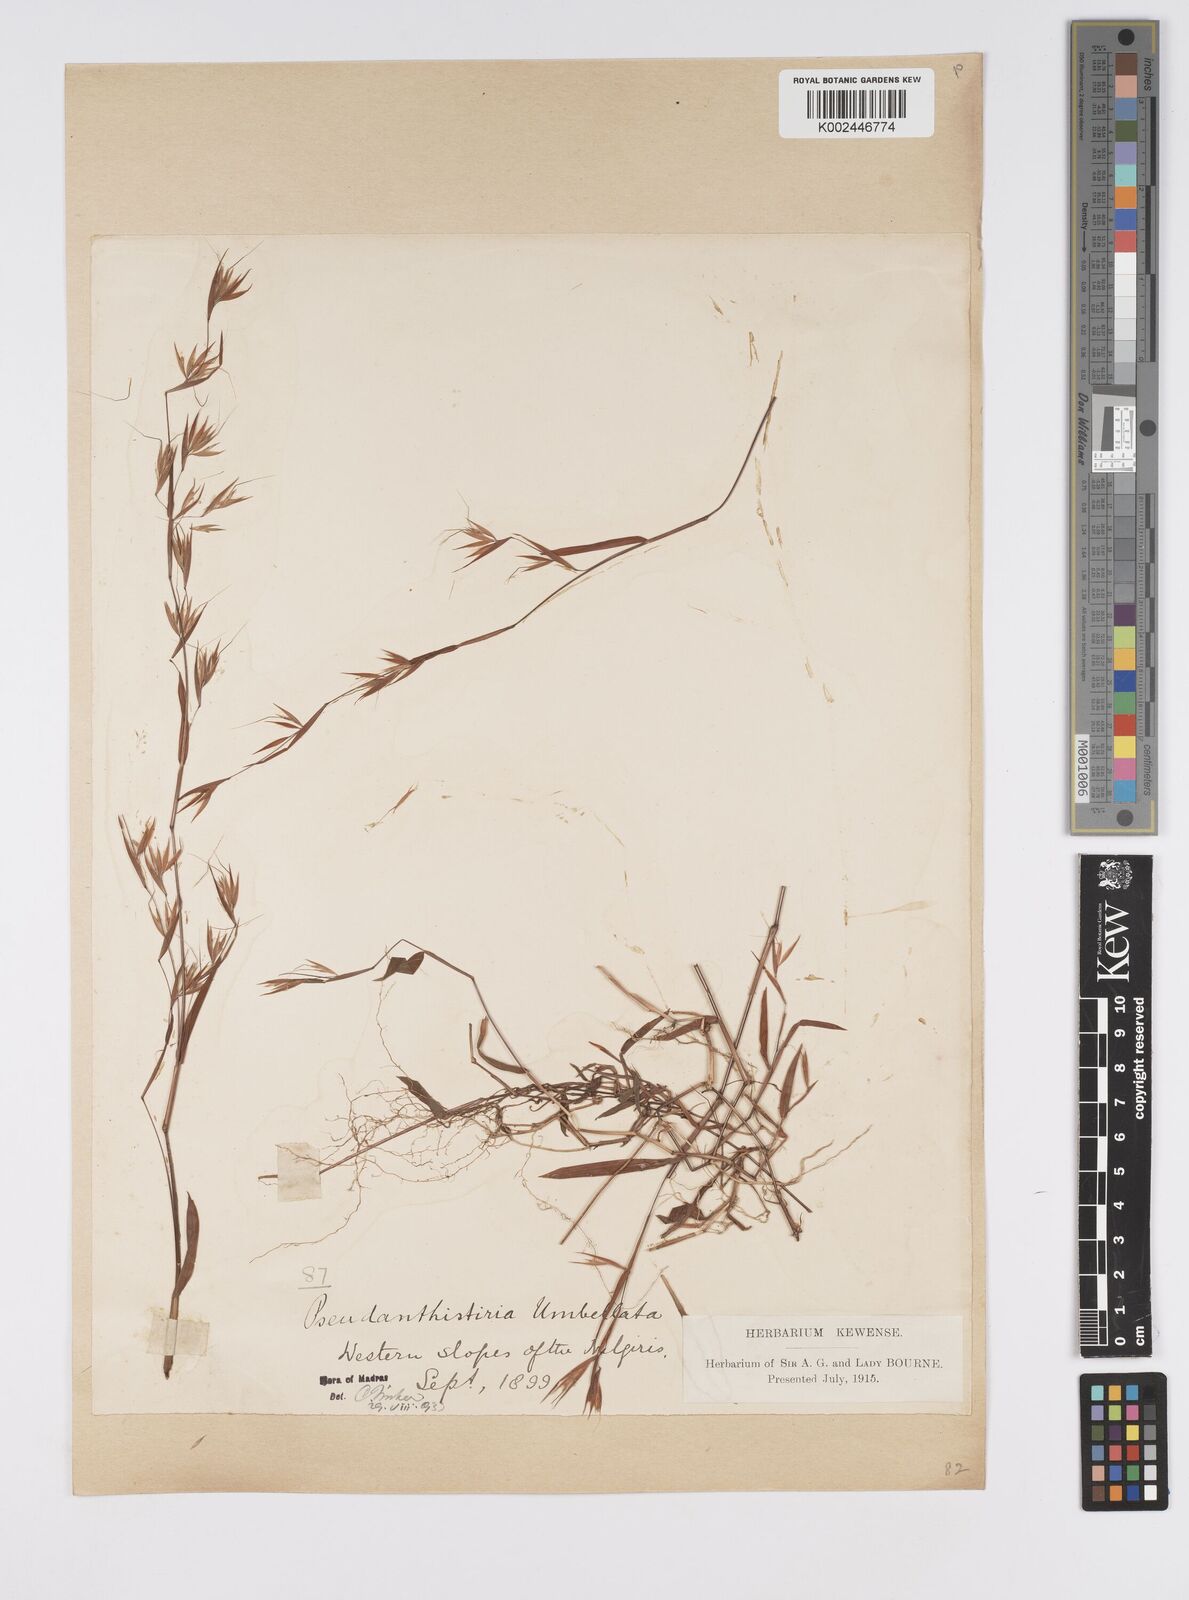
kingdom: Plantae
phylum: Tracheophyta
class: Liliopsida
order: Poales
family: Poaceae
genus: Pseudanthistiria
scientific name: Pseudanthistiria umbellata
